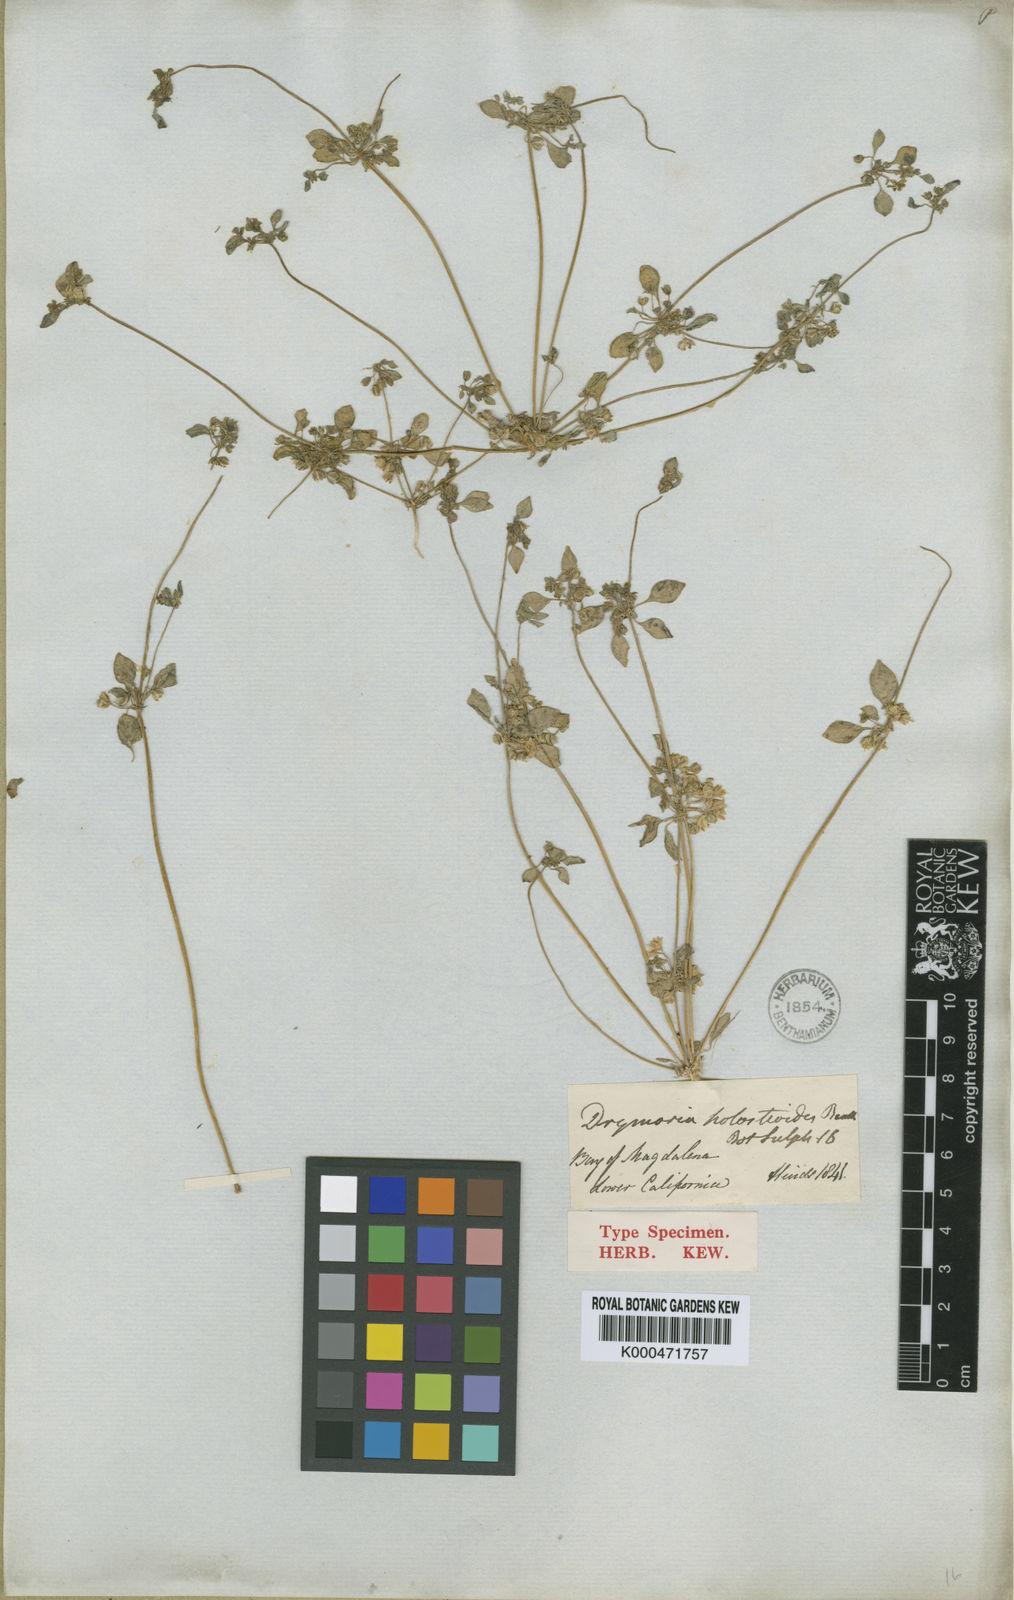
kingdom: Plantae
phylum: Tracheophyta
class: Magnoliopsida
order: Caryophyllales
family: Caryophyllaceae
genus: Drymaria
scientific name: Drymaria holosteoides
